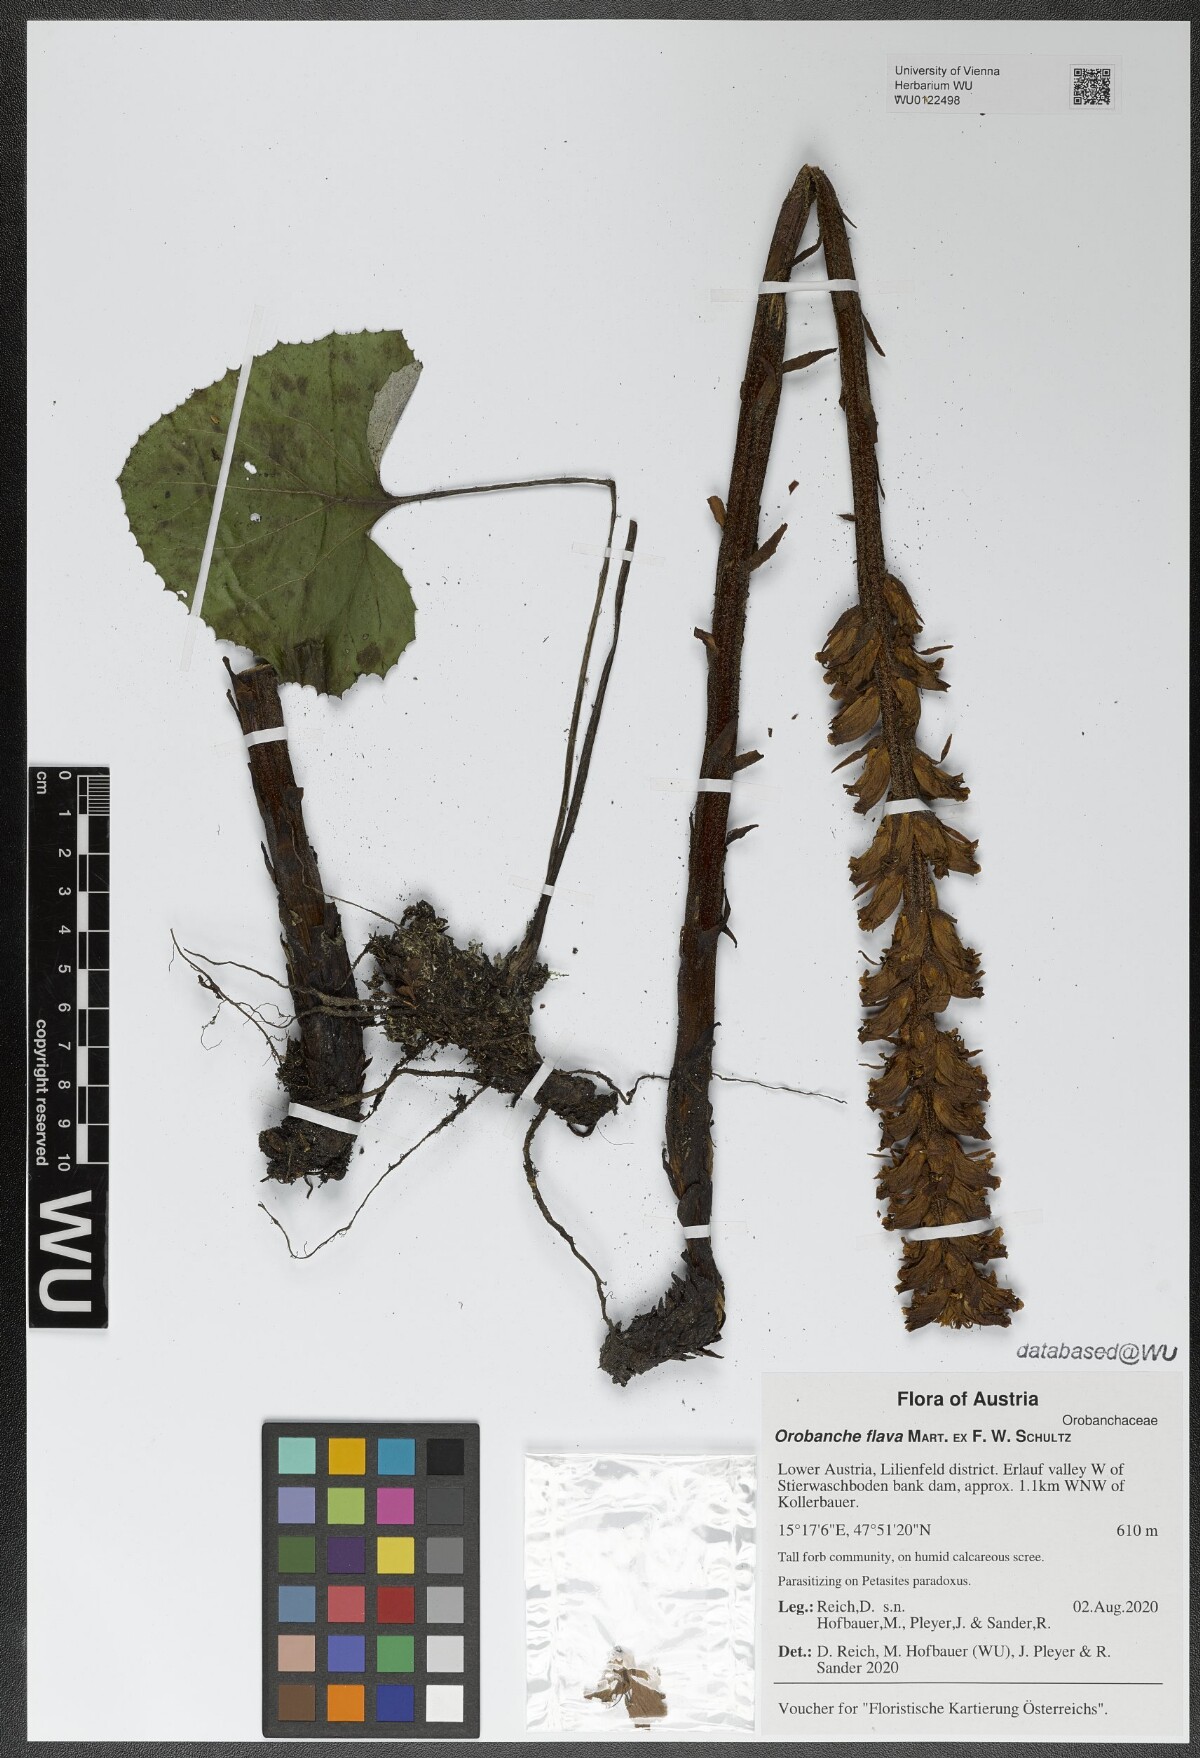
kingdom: Plantae
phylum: Tracheophyta
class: Magnoliopsida
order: Lamiales
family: Orobanchaceae
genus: Orobanche
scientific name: Orobanche flava
